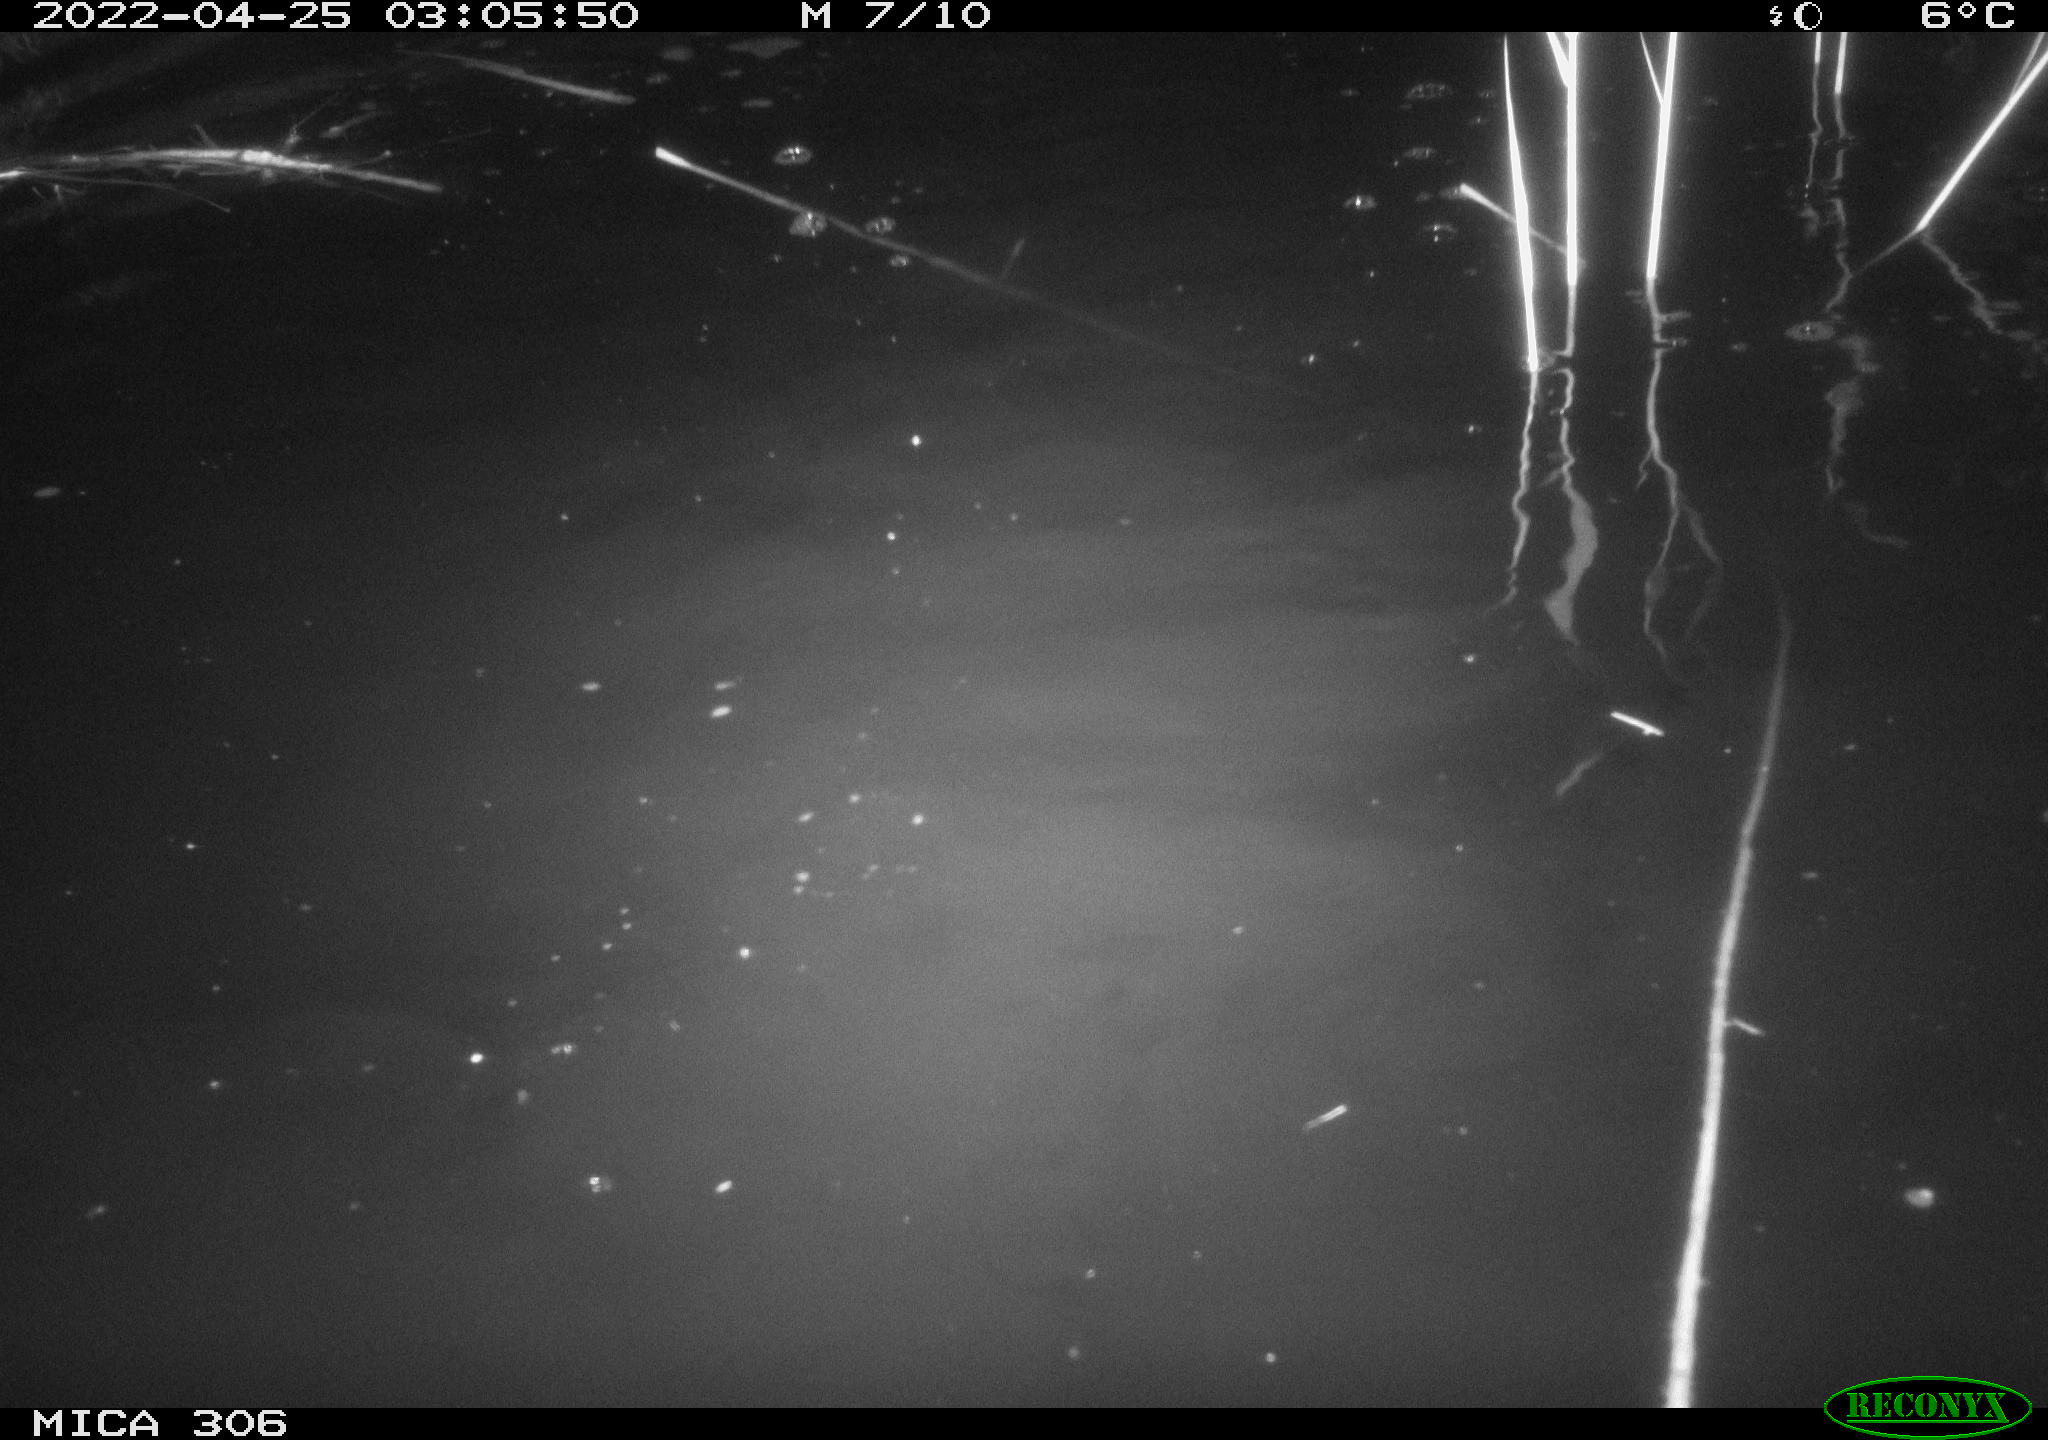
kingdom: Animalia
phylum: Chordata
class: Aves
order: Gruiformes
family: Rallidae
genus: Gallinula
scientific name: Gallinula chloropus
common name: Common moorhen
